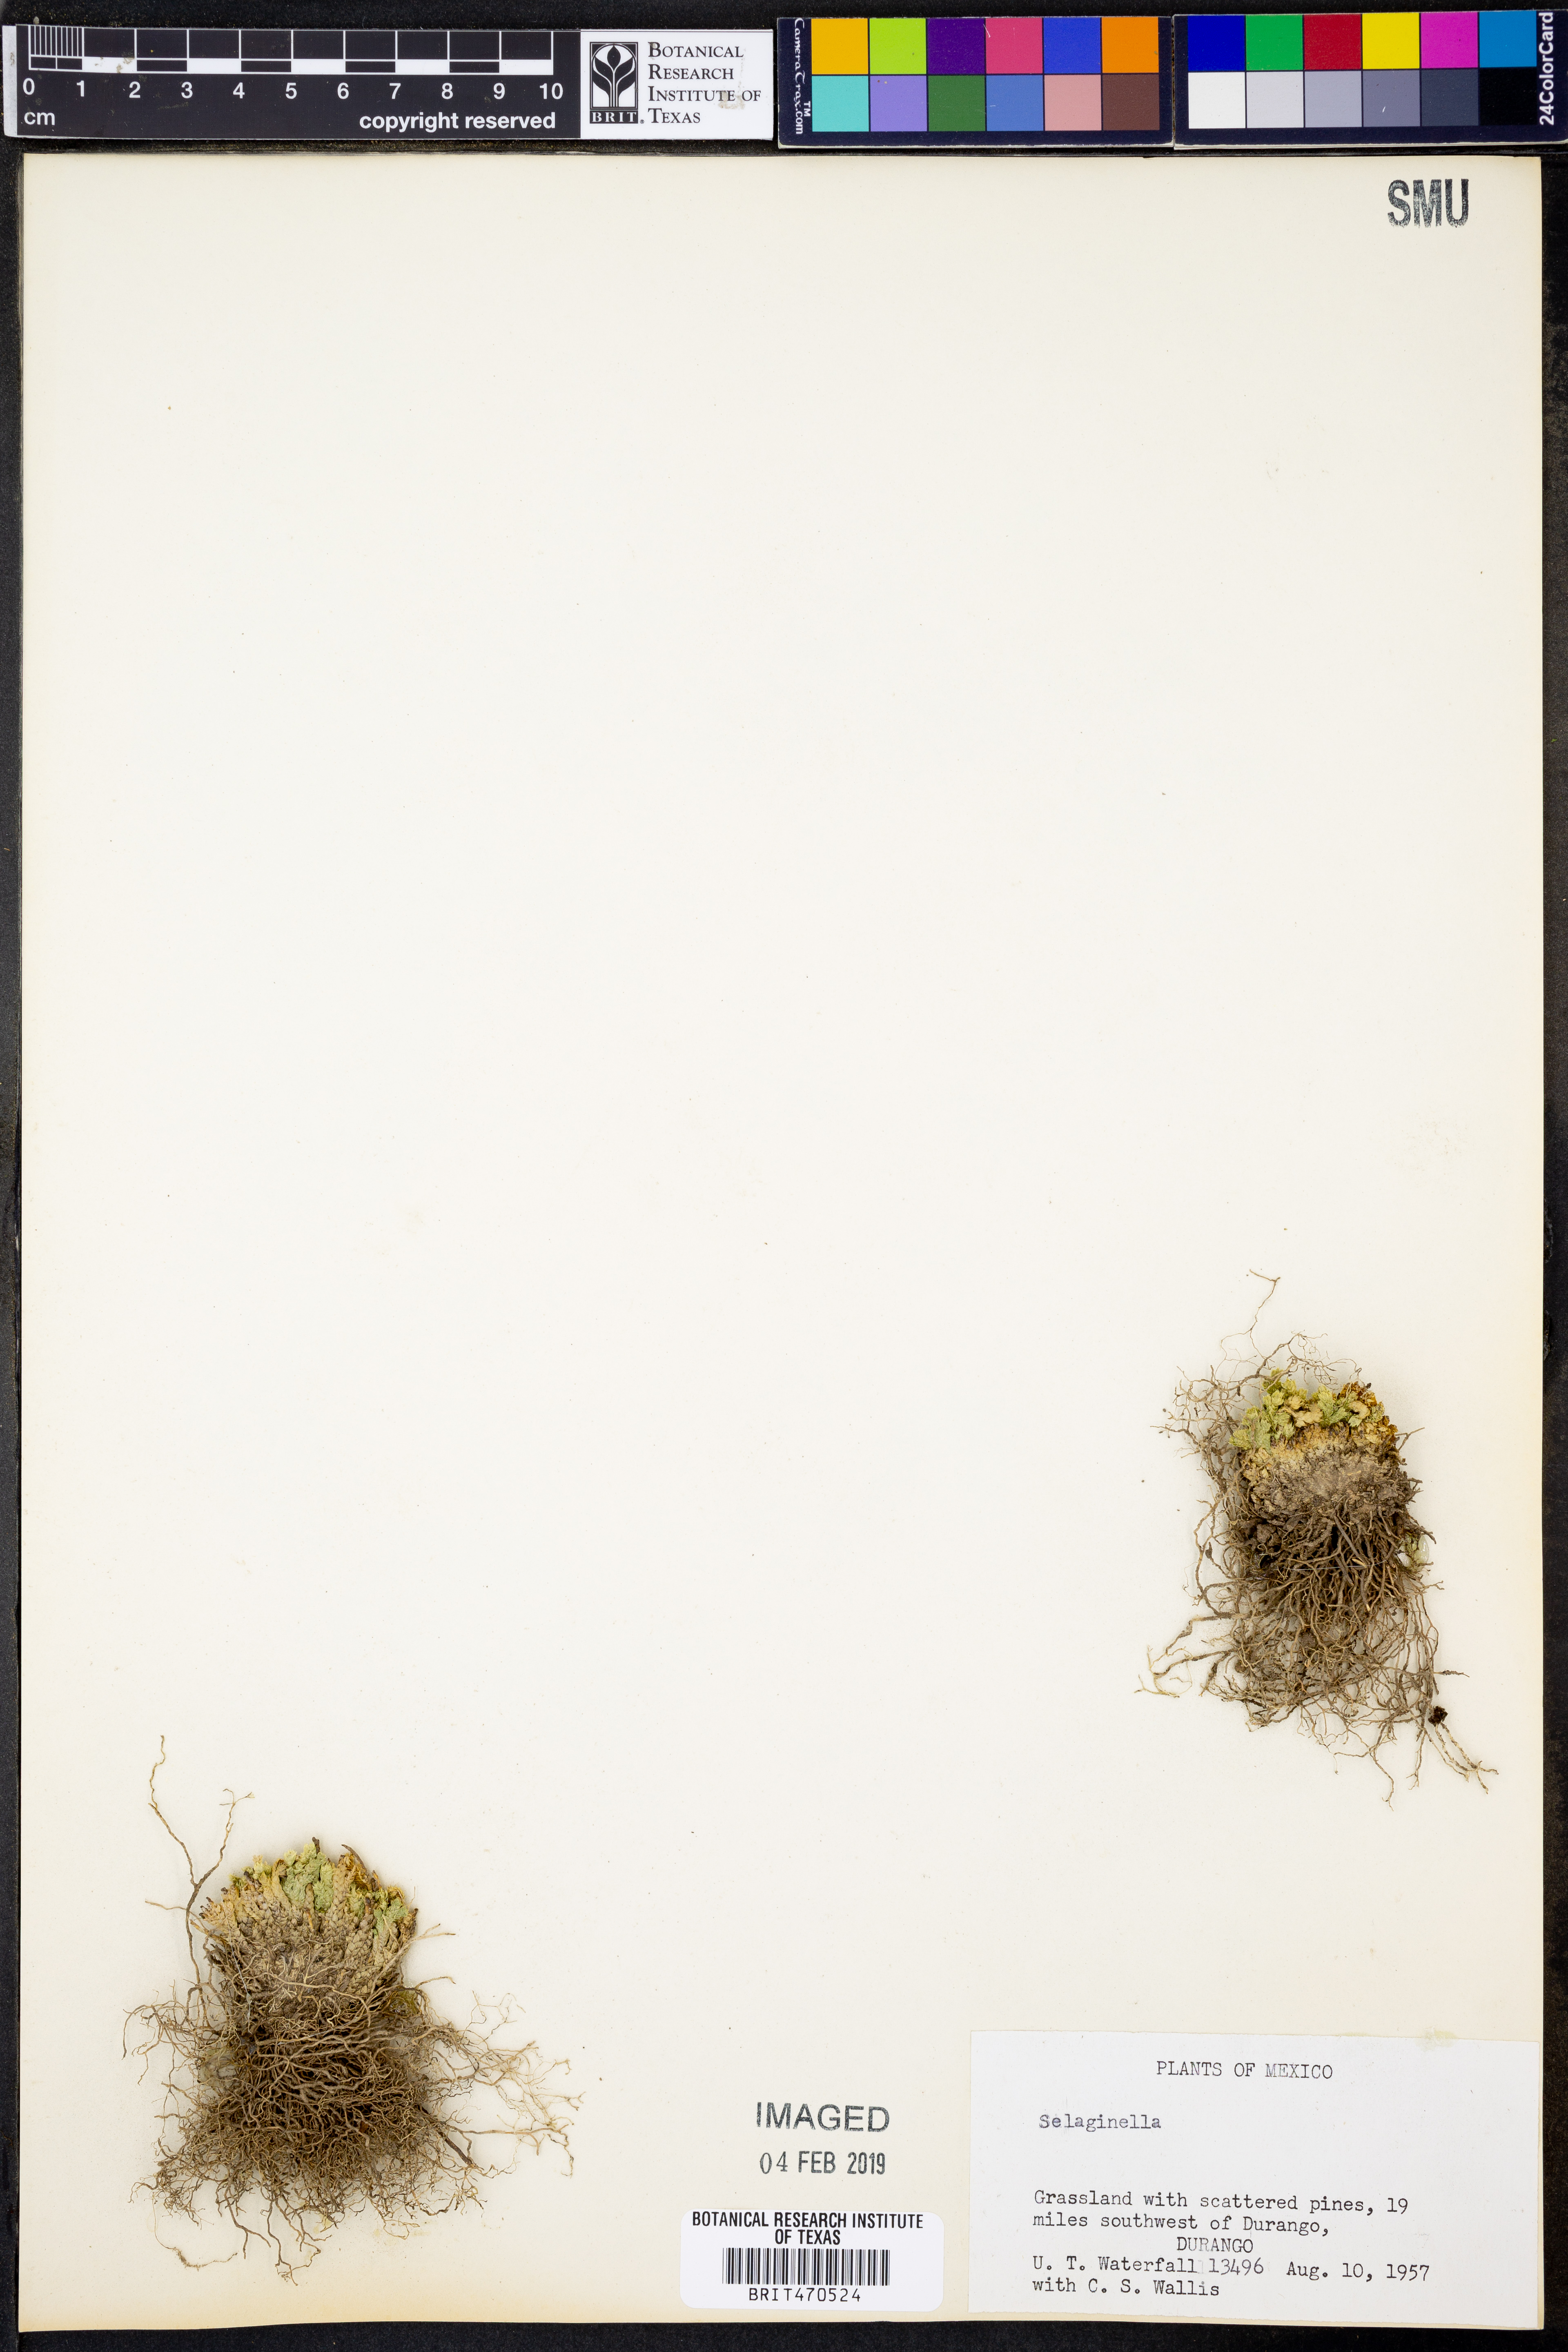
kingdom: Plantae
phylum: Tracheophyta
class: Lycopodiopsida
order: Selaginellales
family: Selaginellaceae
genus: Selaginella
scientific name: Selaginella
